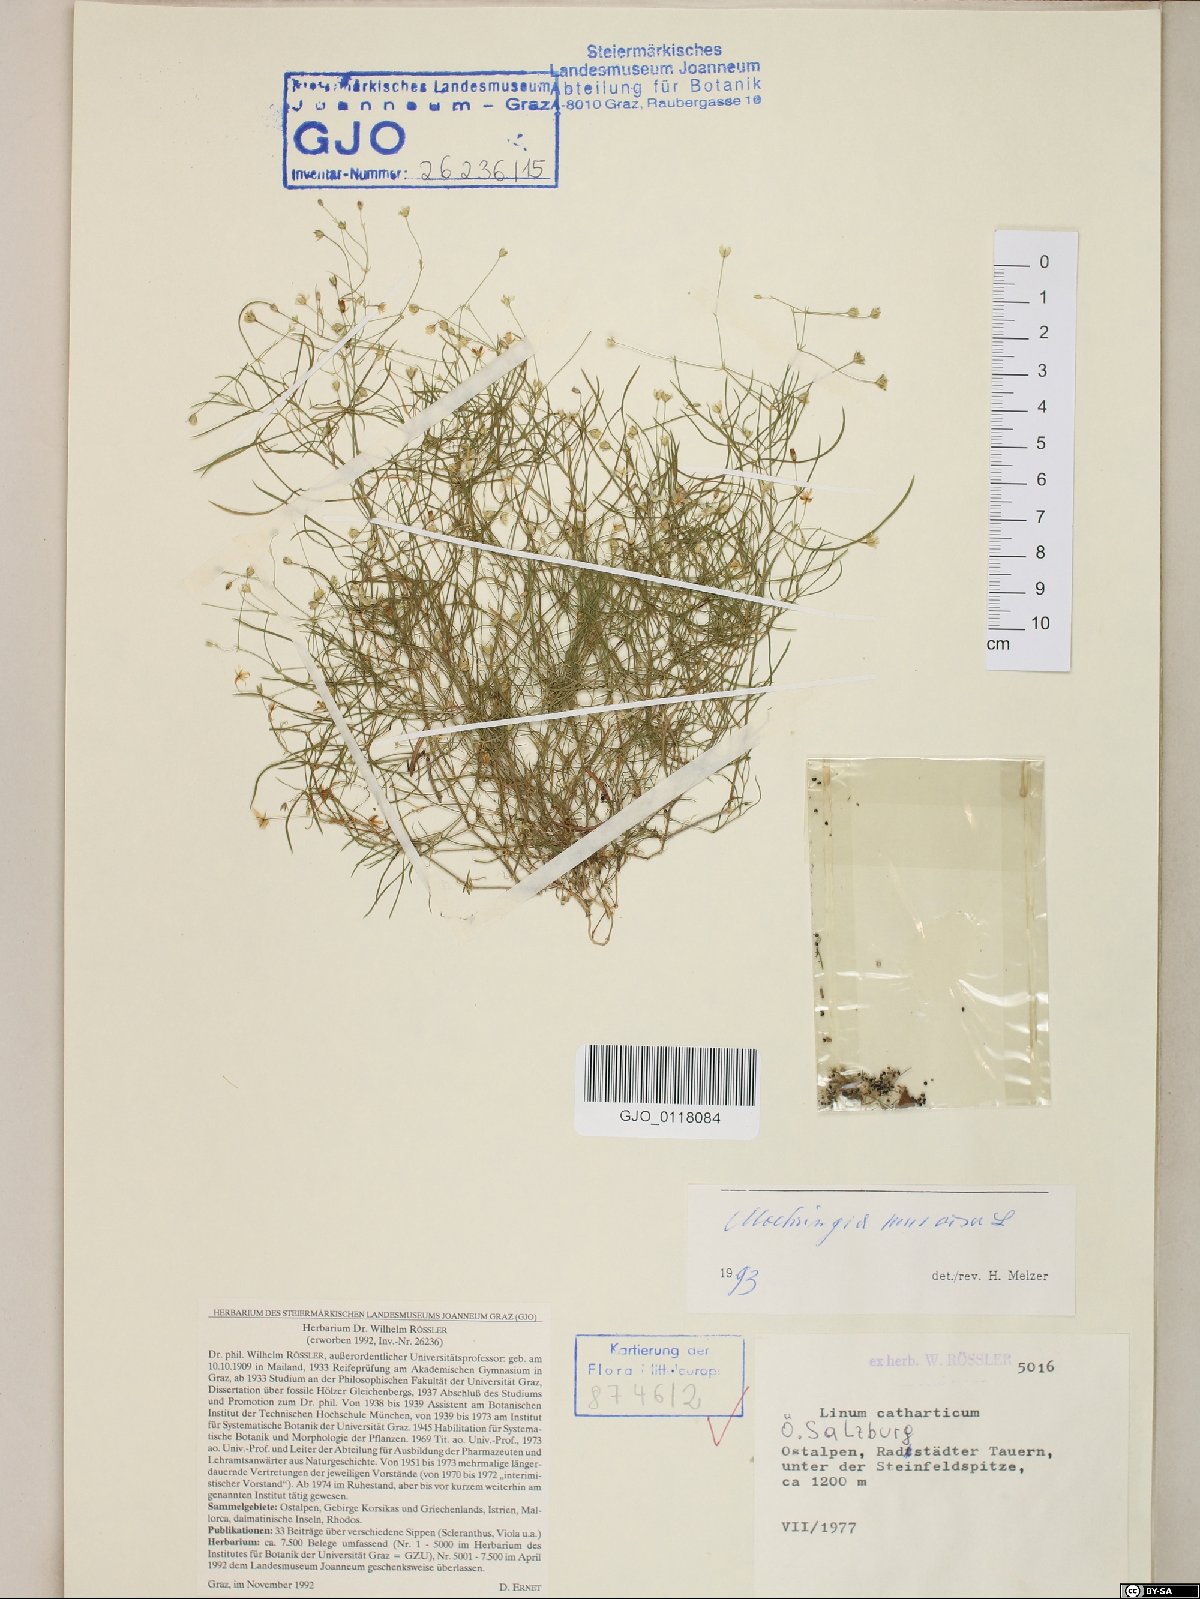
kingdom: Plantae
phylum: Tracheophyta
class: Magnoliopsida
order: Caryophyllales
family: Caryophyllaceae
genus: Moehringia
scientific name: Moehringia muscosa
